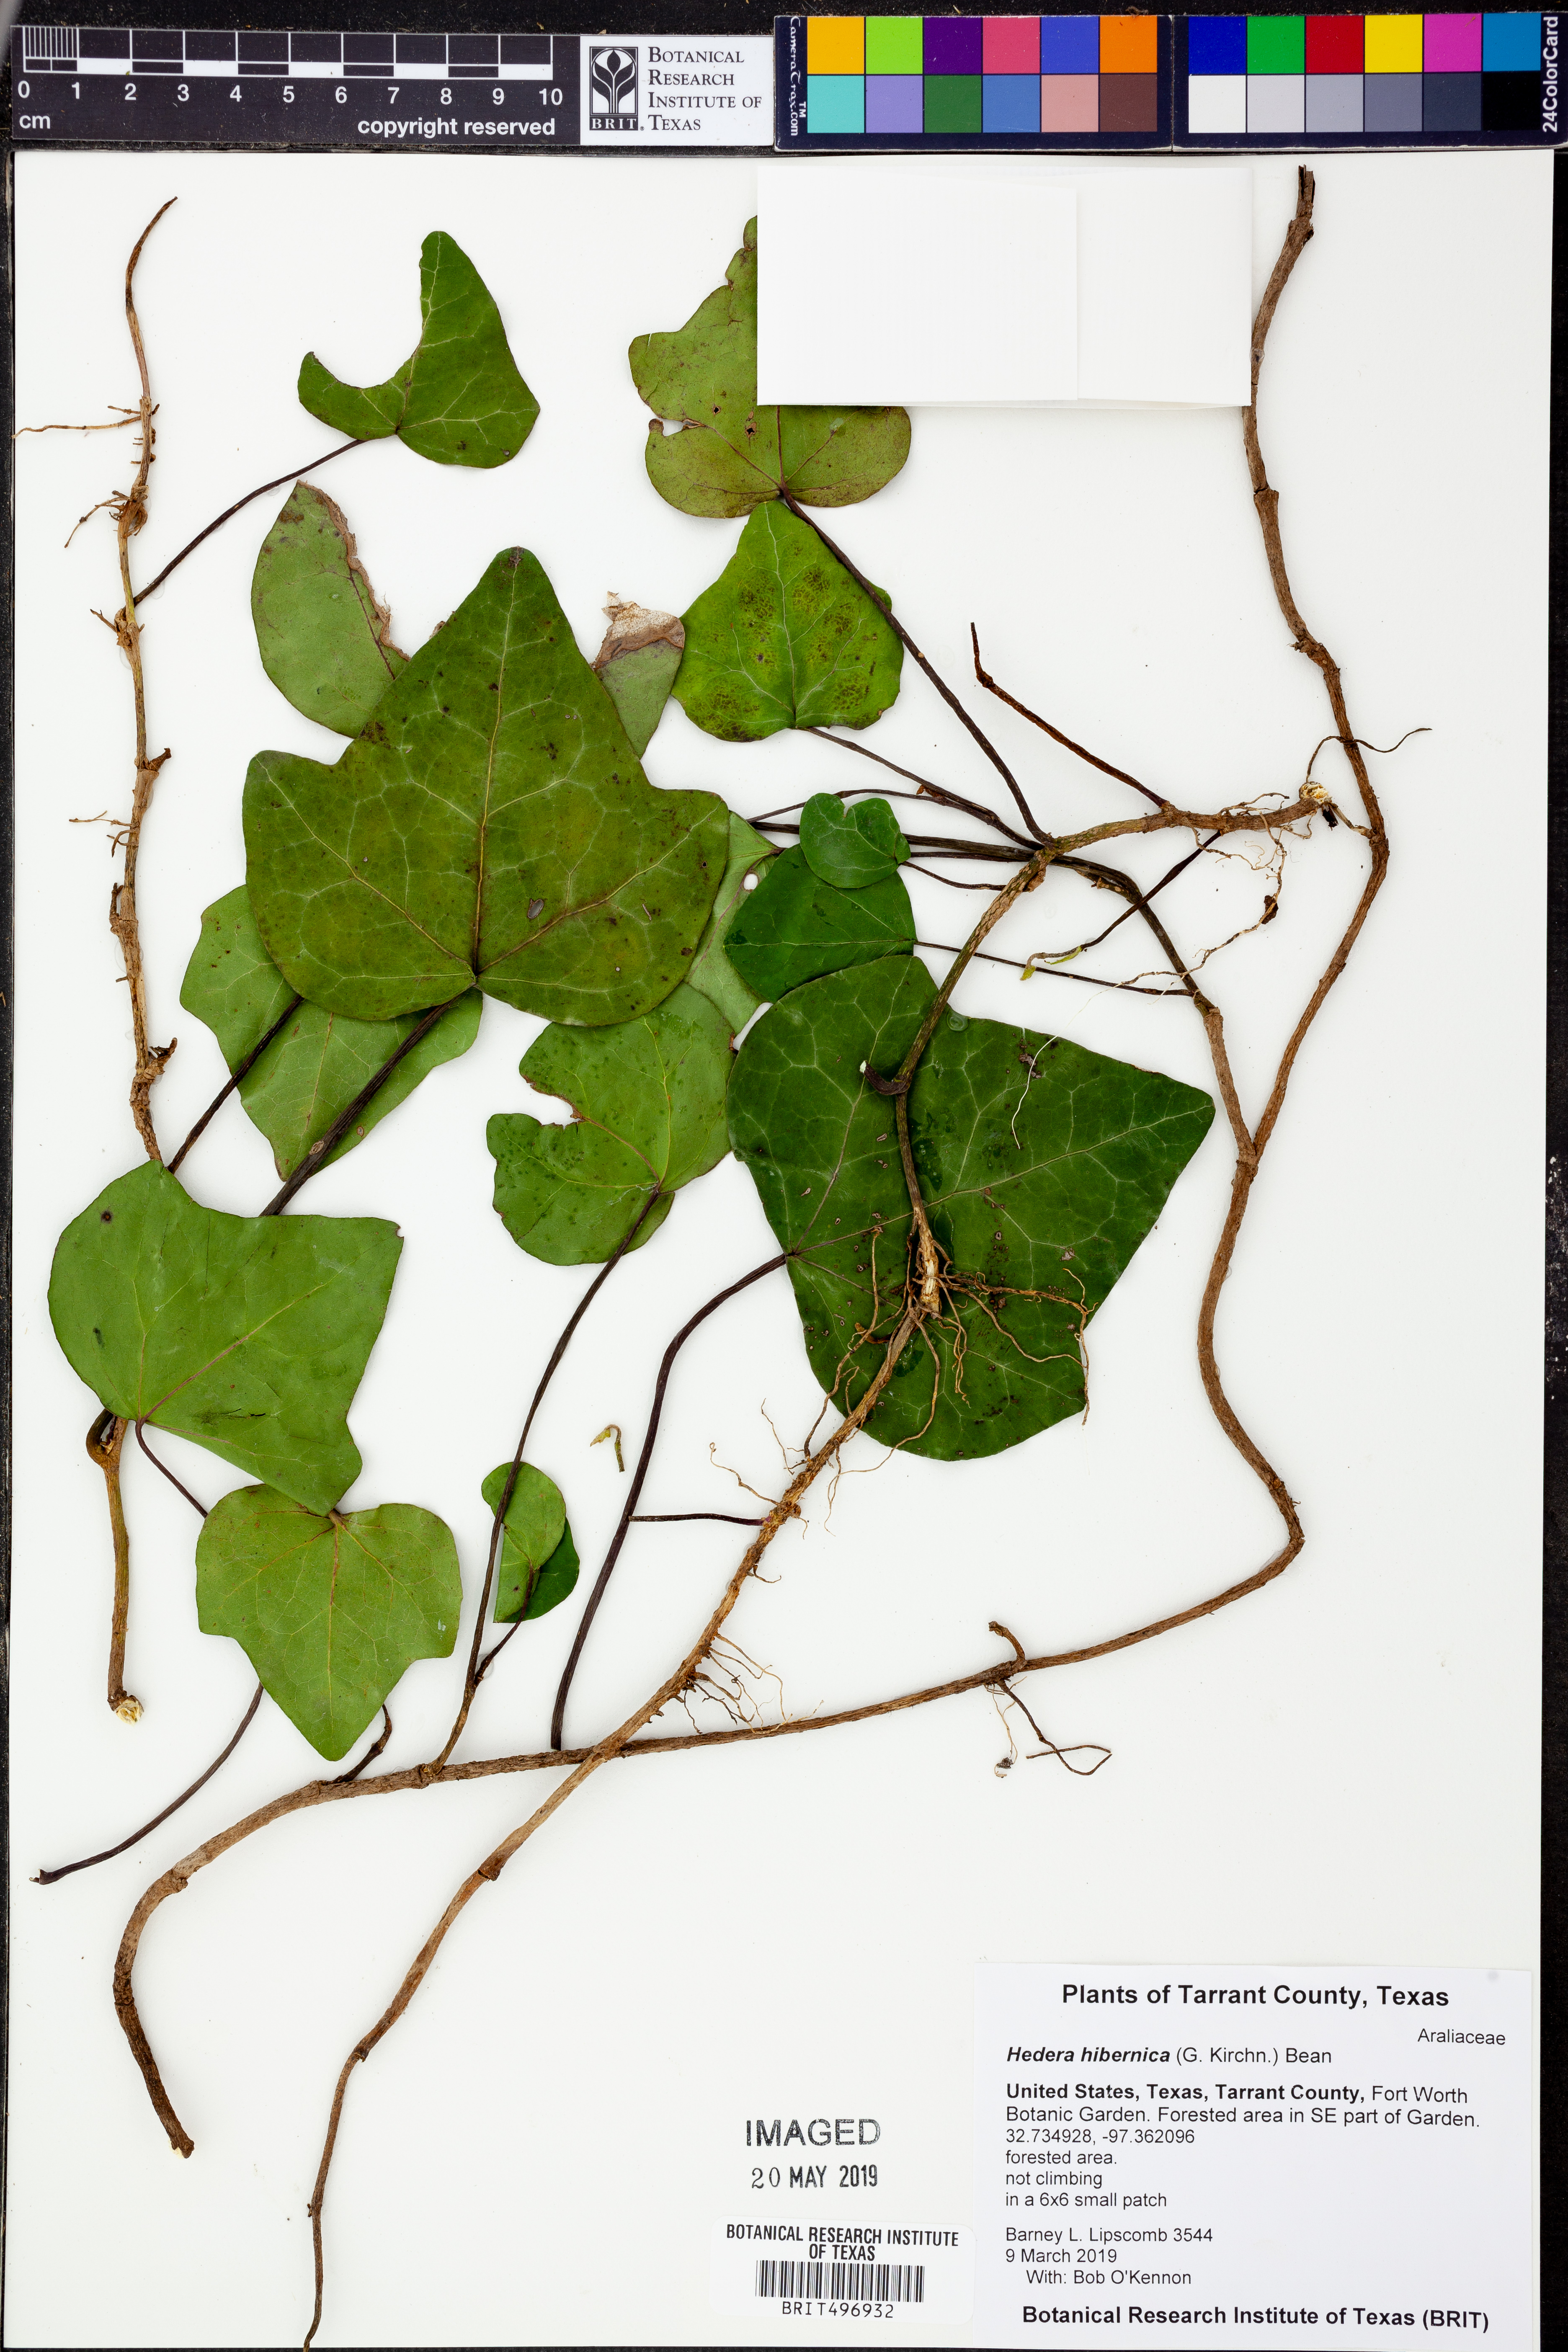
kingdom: Plantae
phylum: Tracheophyta
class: Magnoliopsida
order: Apiales
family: Araliaceae
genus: Hedera
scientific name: Hedera hibernica
